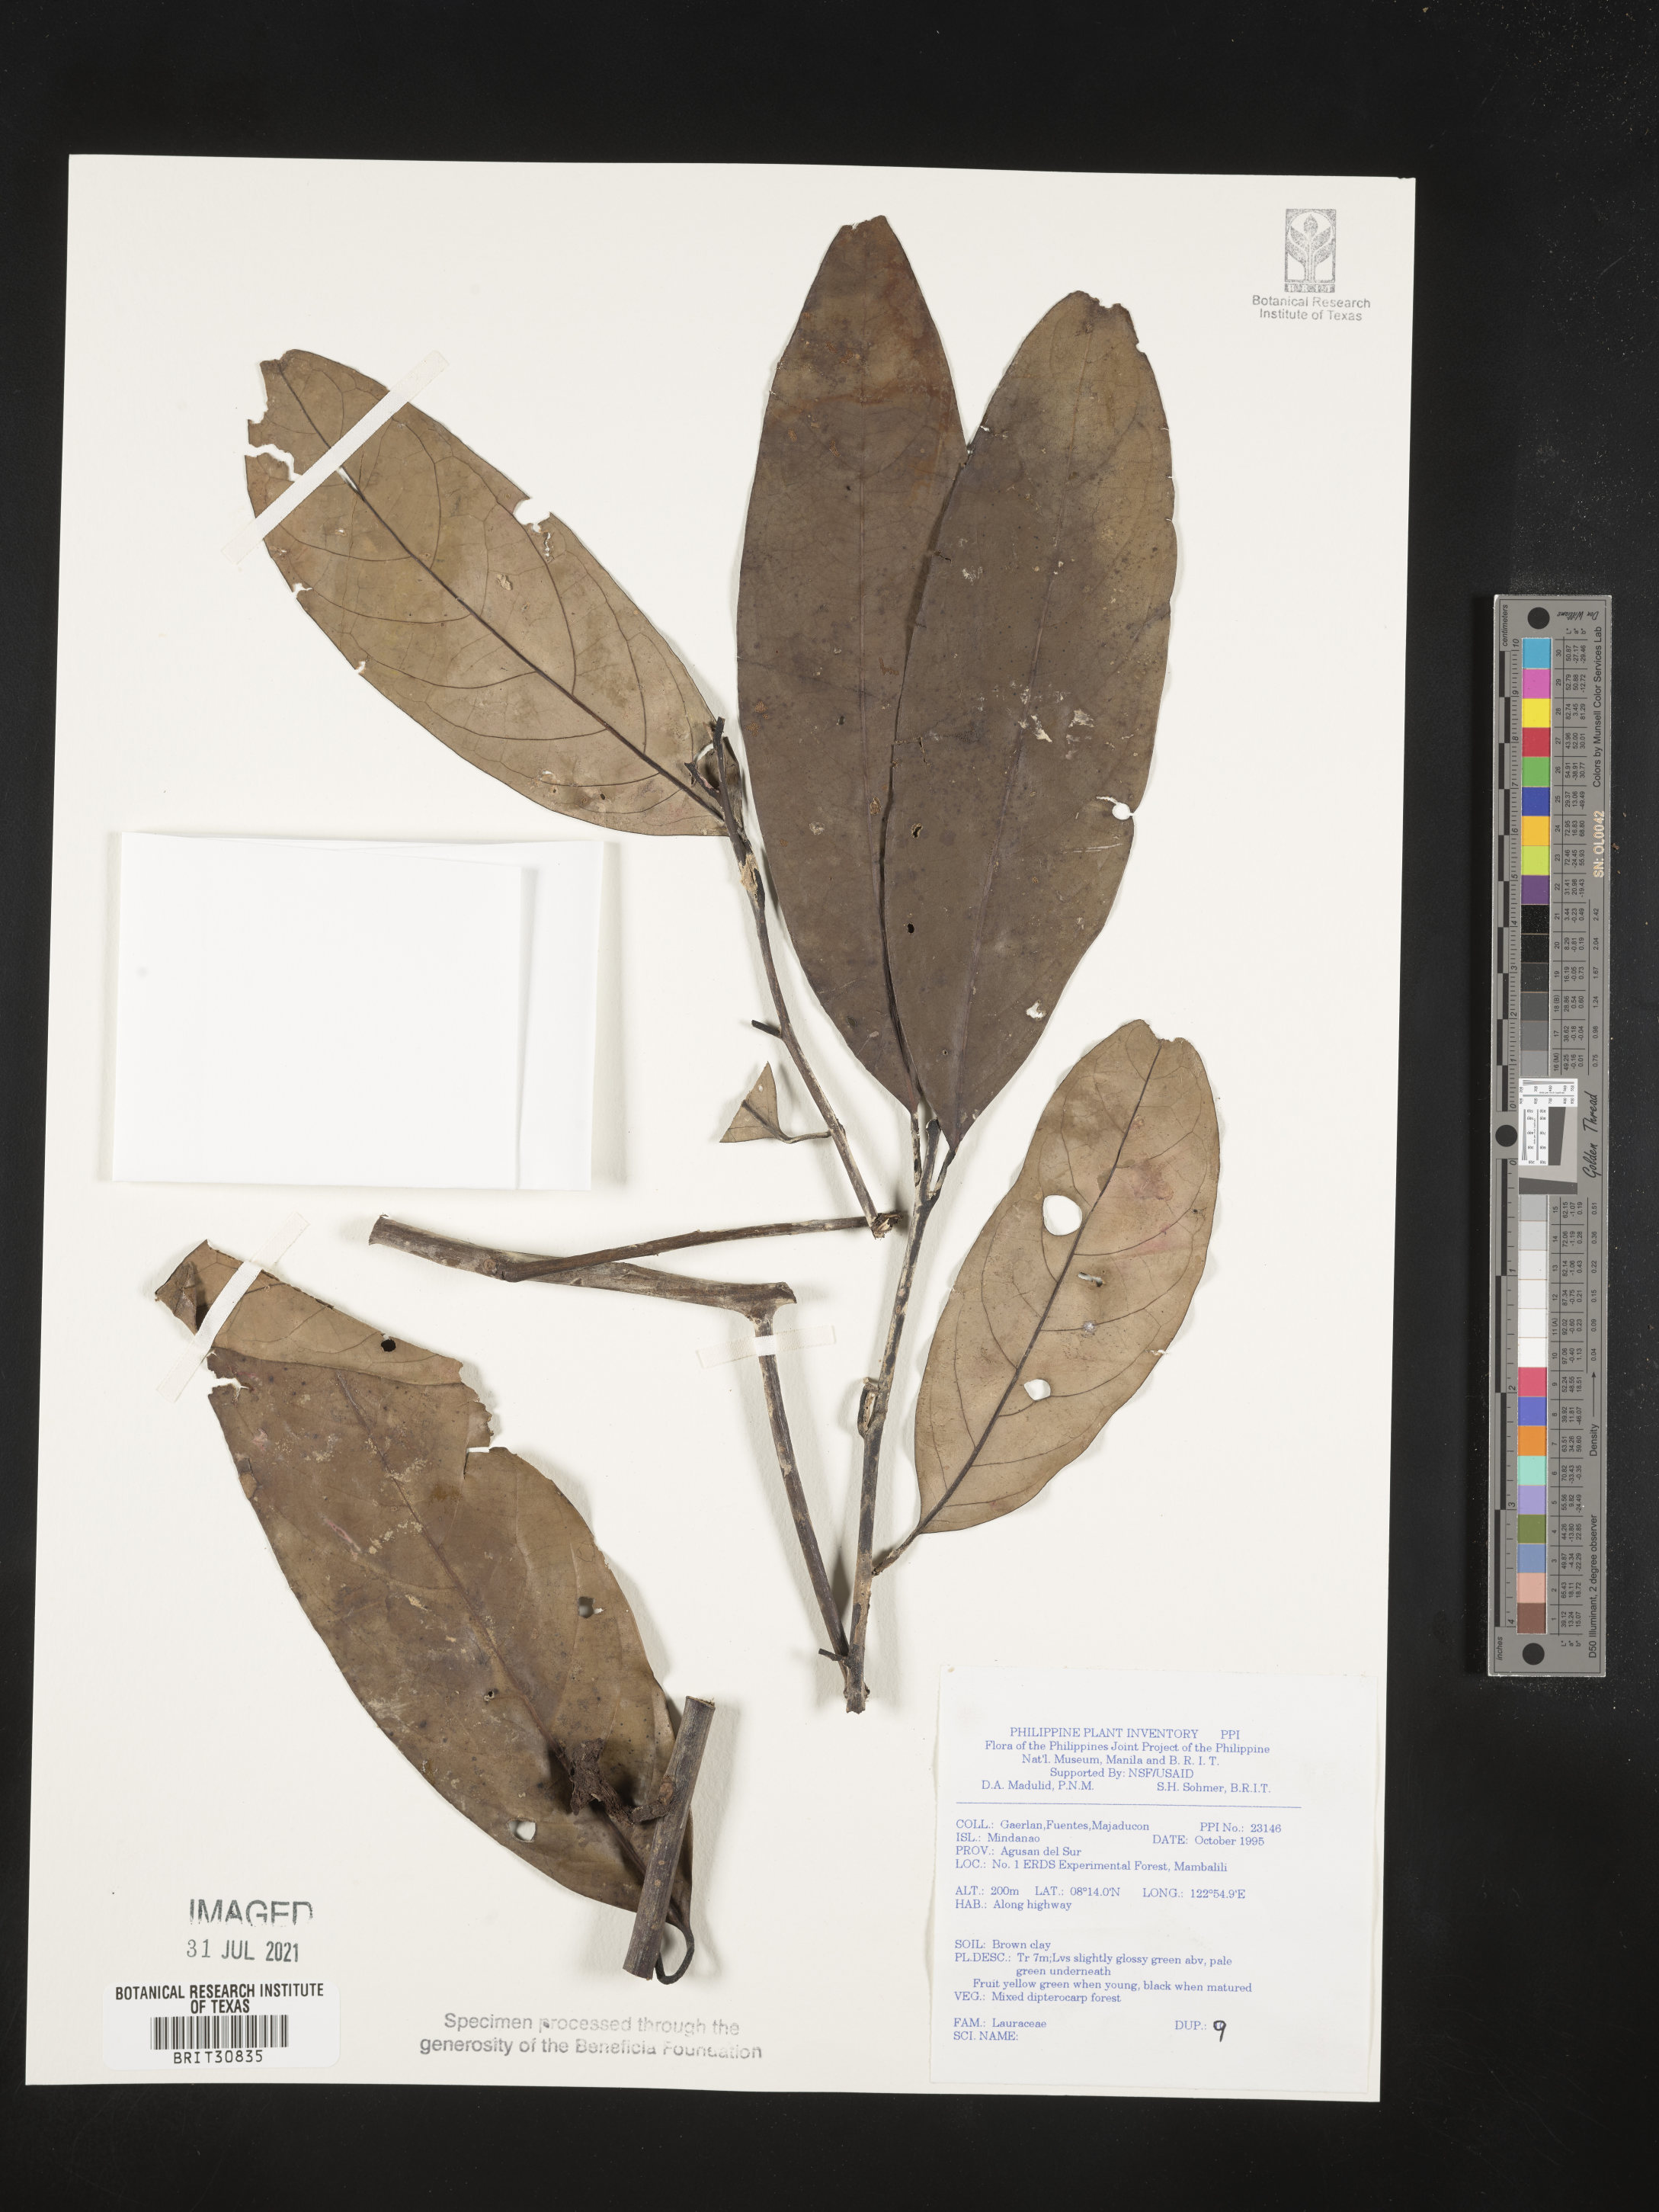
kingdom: Plantae
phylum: Tracheophyta
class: Magnoliopsida
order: Laurales
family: Lauraceae
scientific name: Lauraceae
